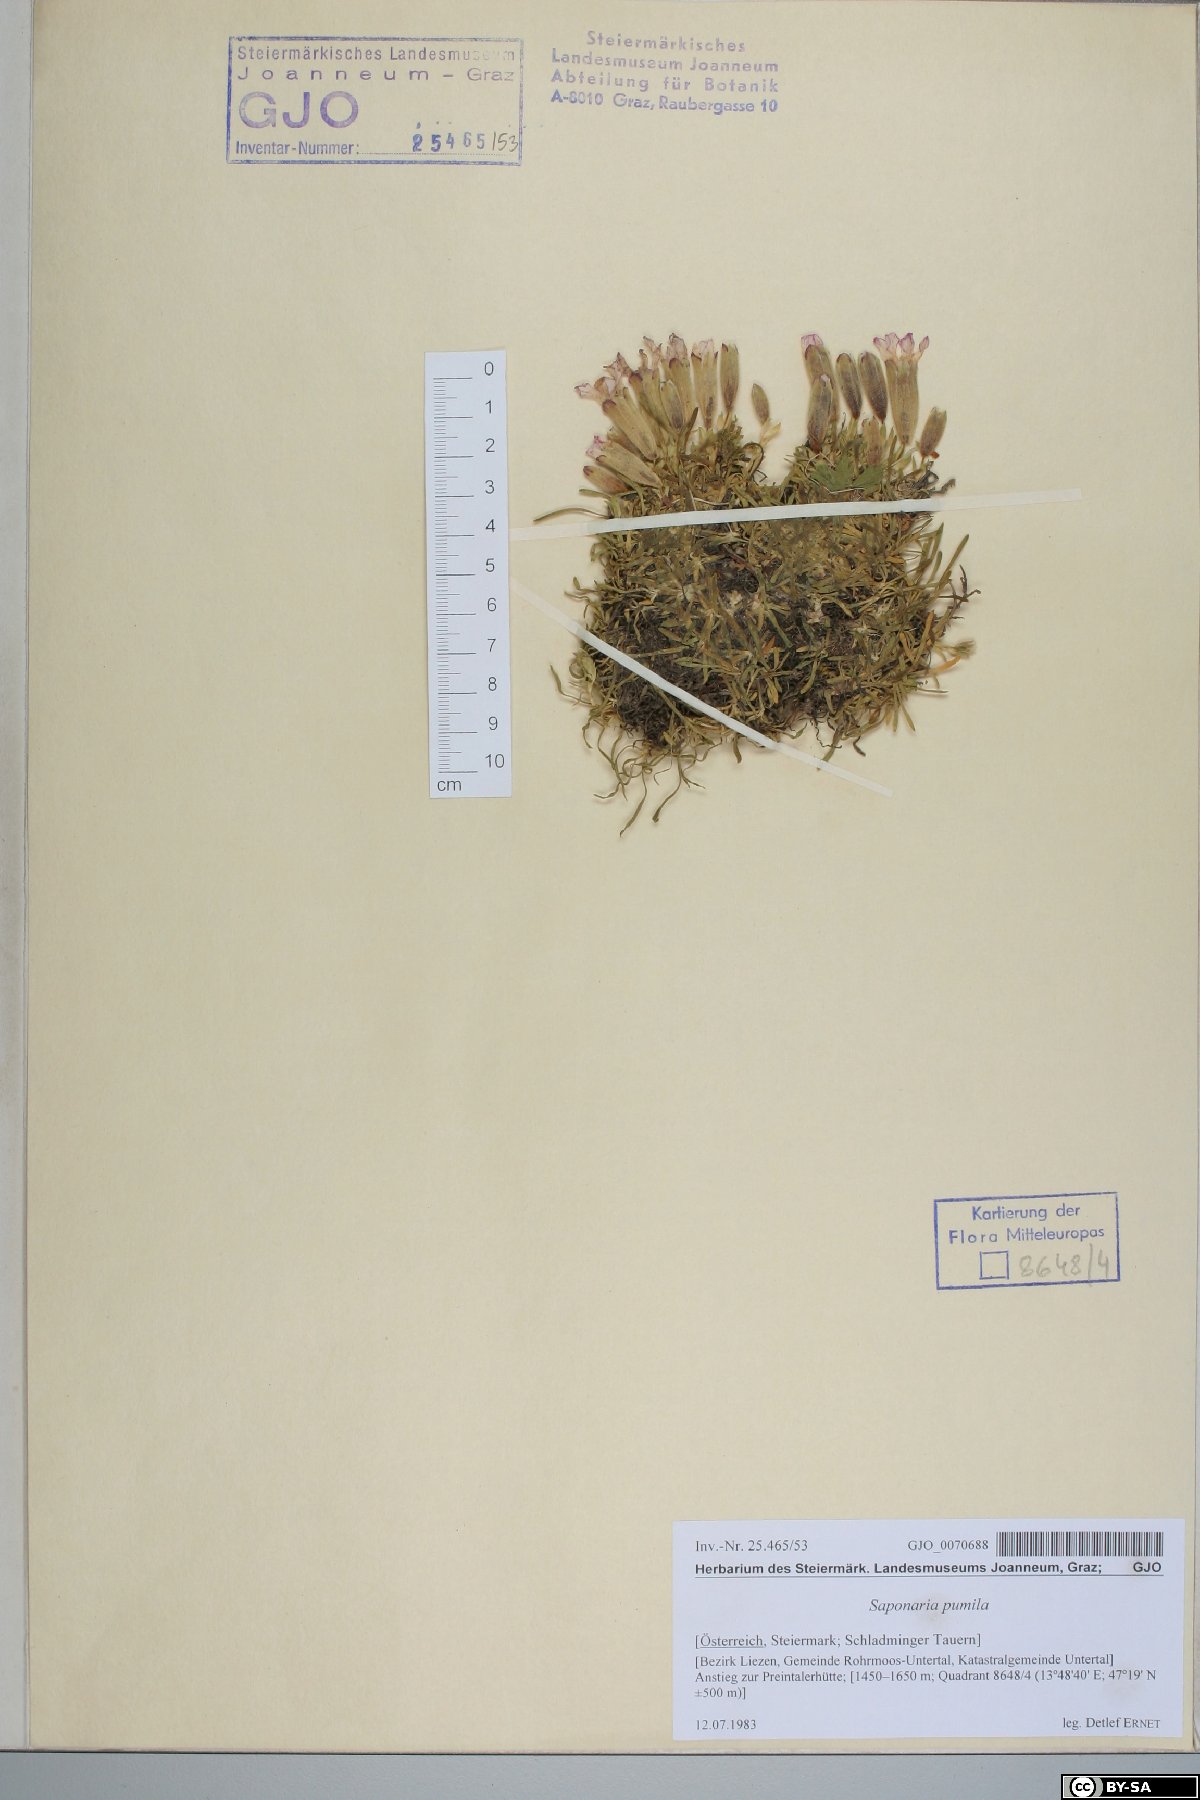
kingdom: Plantae
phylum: Tracheophyta
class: Magnoliopsida
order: Caryophyllales
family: Caryophyllaceae
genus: Saponaria
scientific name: Saponaria pumila
